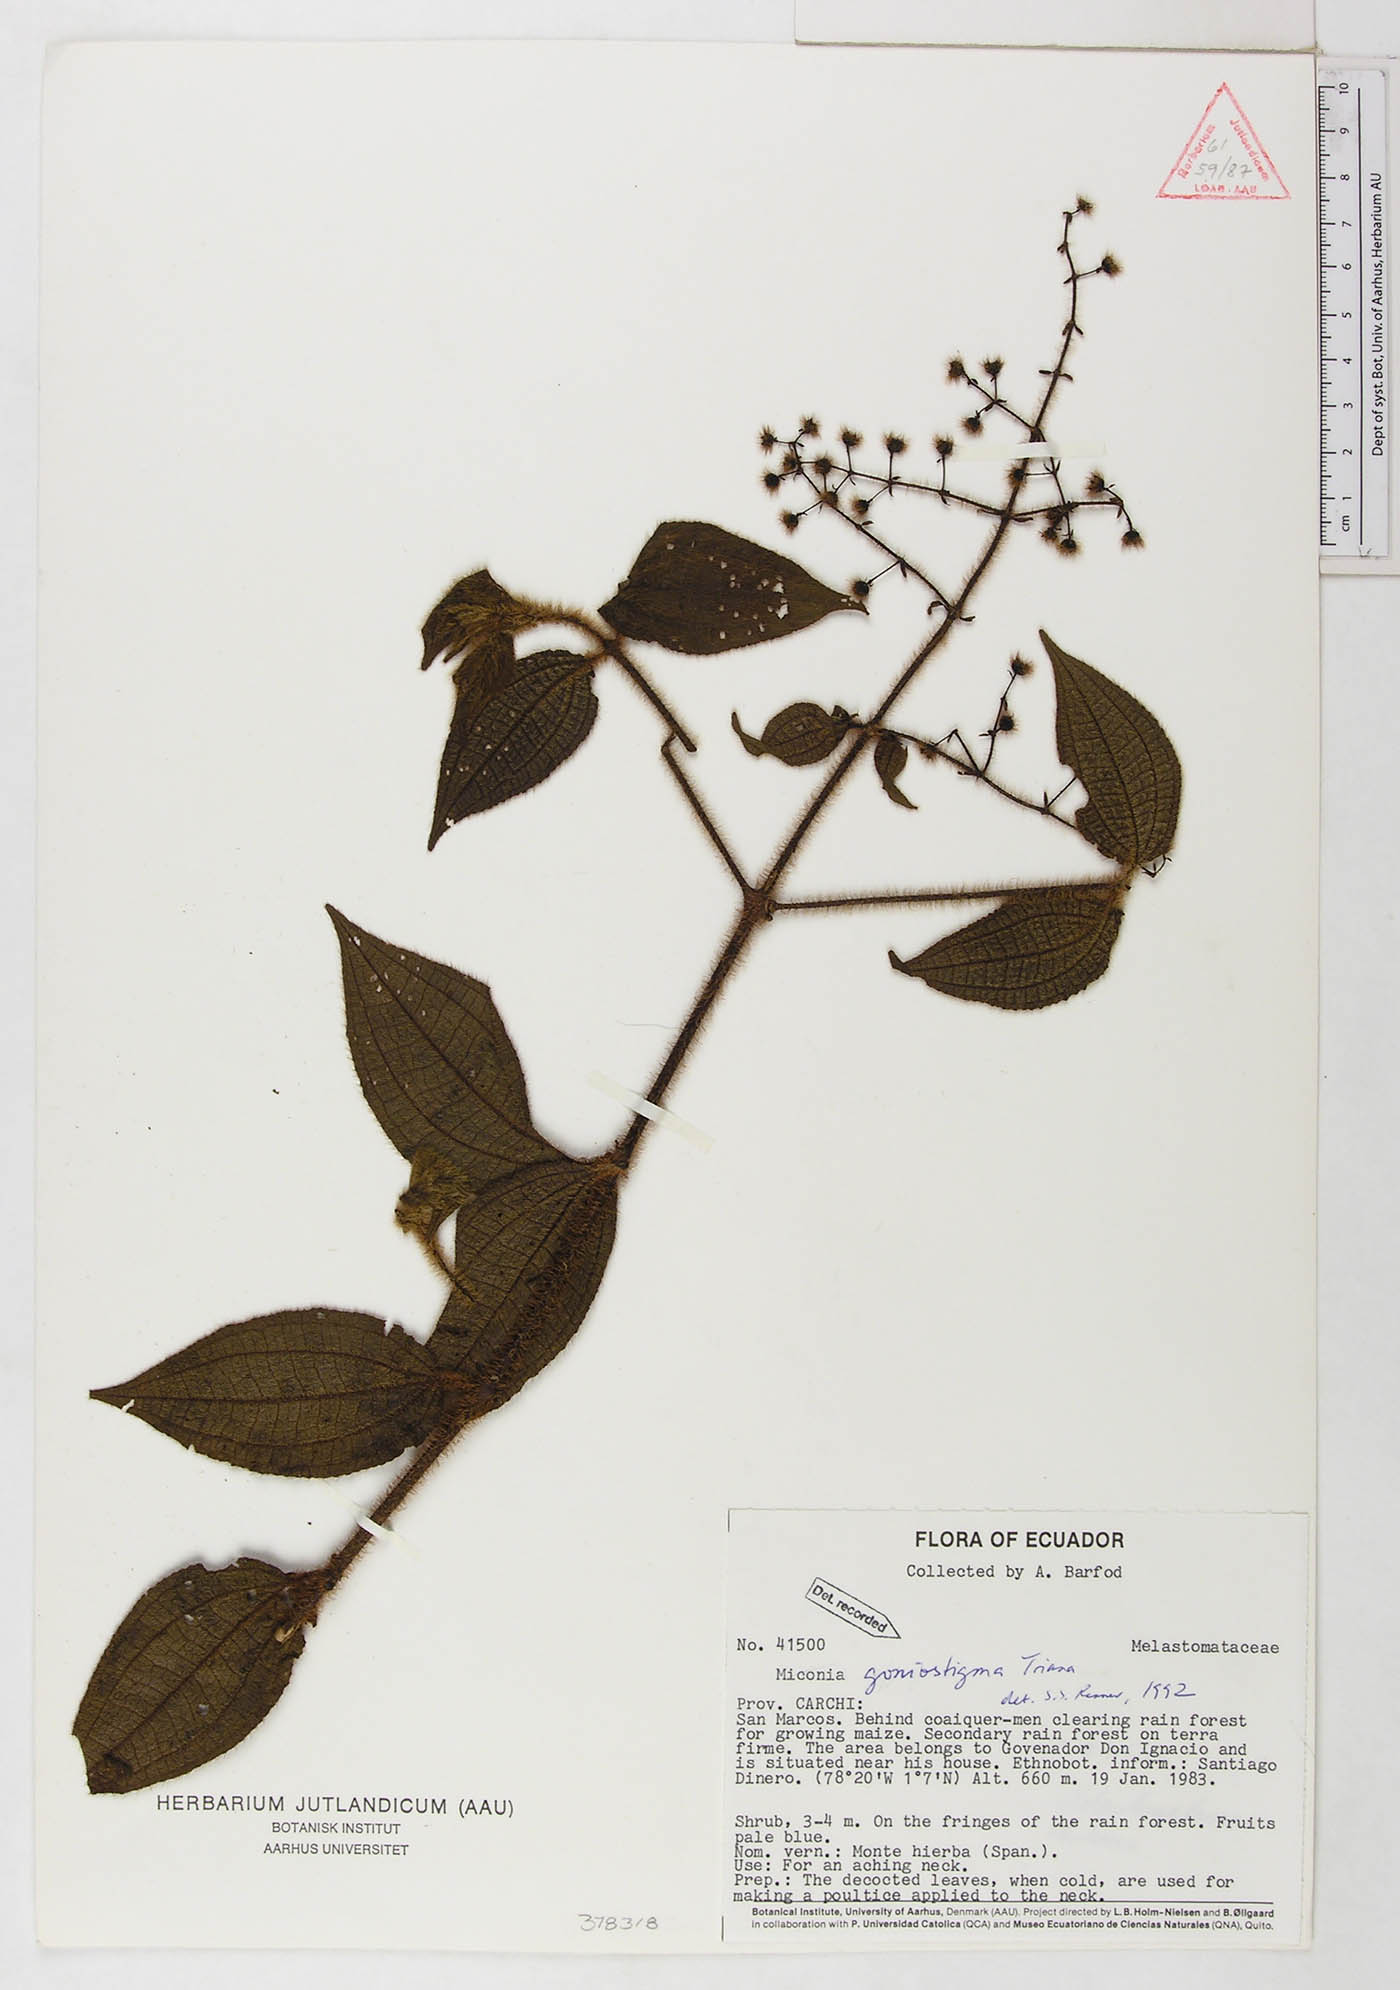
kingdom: Plantae
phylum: Tracheophyta
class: Magnoliopsida
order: Myrtales
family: Melastomataceae
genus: Miconia
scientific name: Miconia goniostigma
